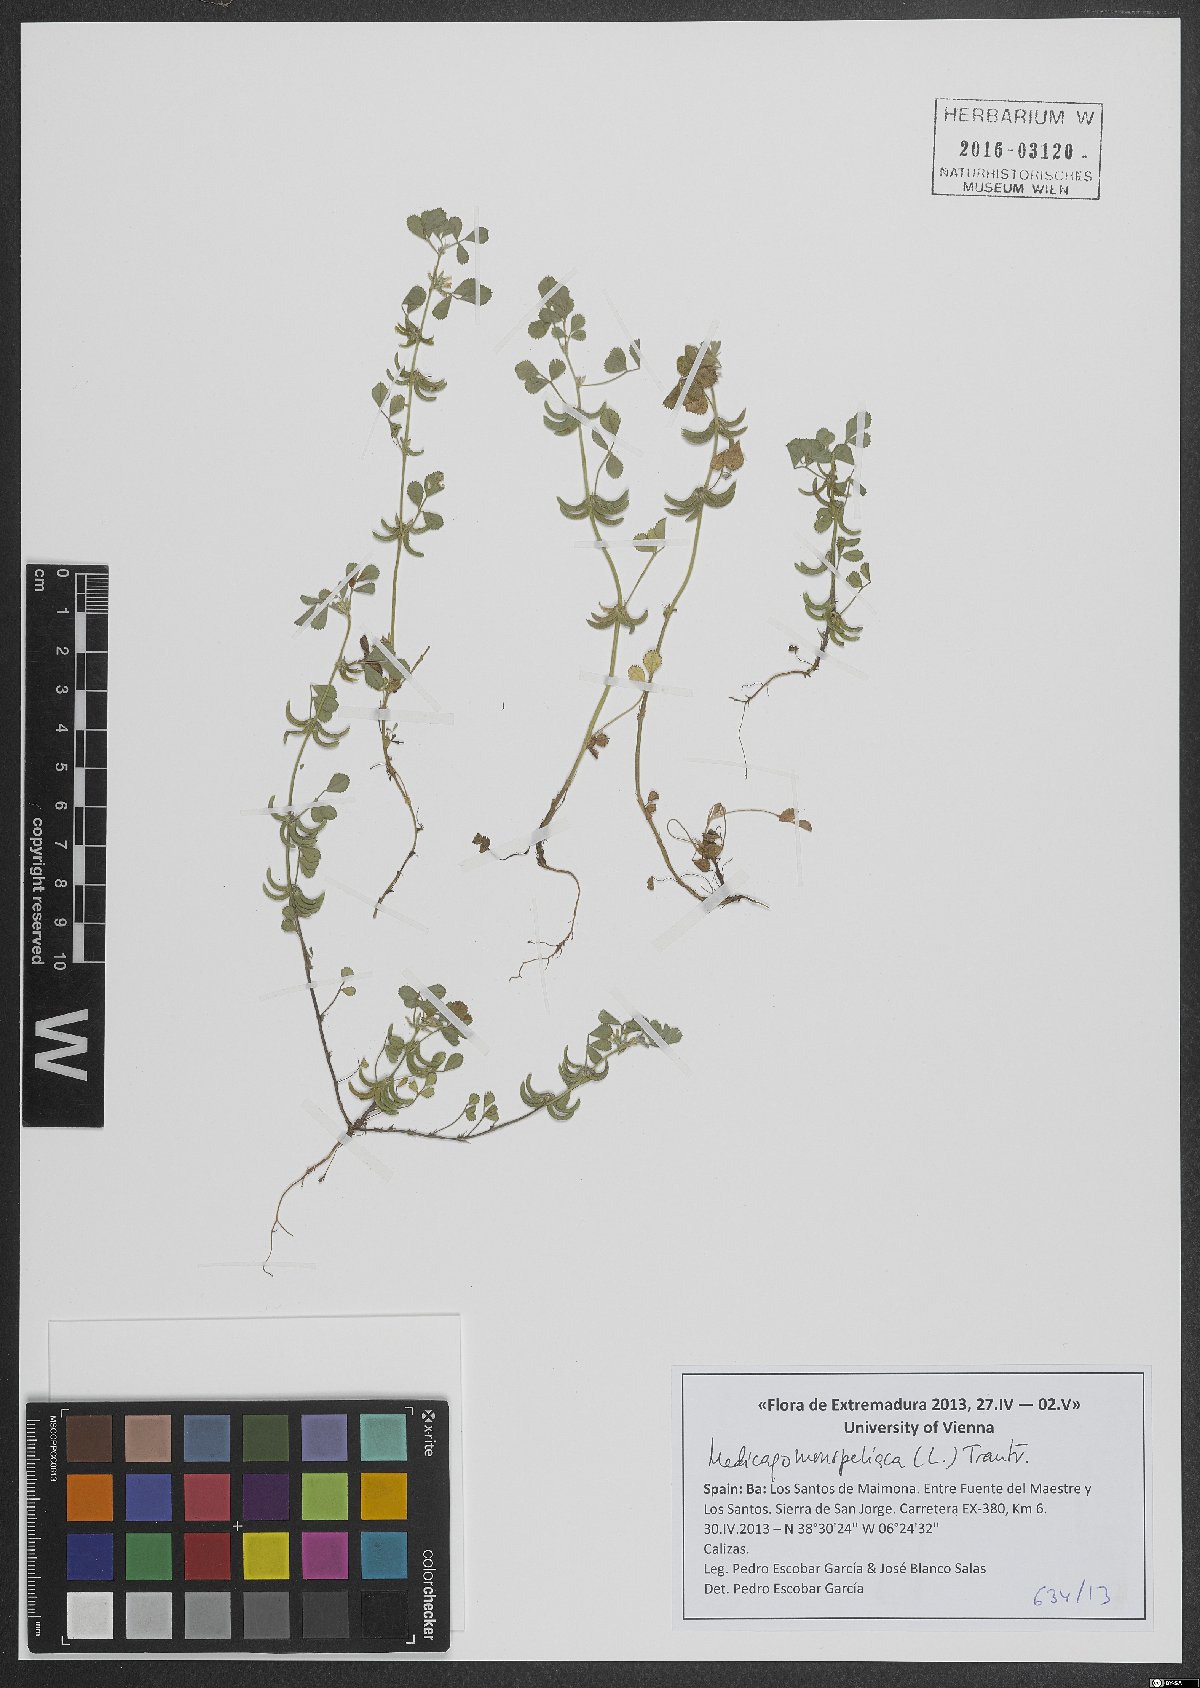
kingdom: Plantae
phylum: Tracheophyta
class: Magnoliopsida
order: Fabales
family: Fabaceae
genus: Medicago
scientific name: Medicago monspeliaca
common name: Hairy medick
